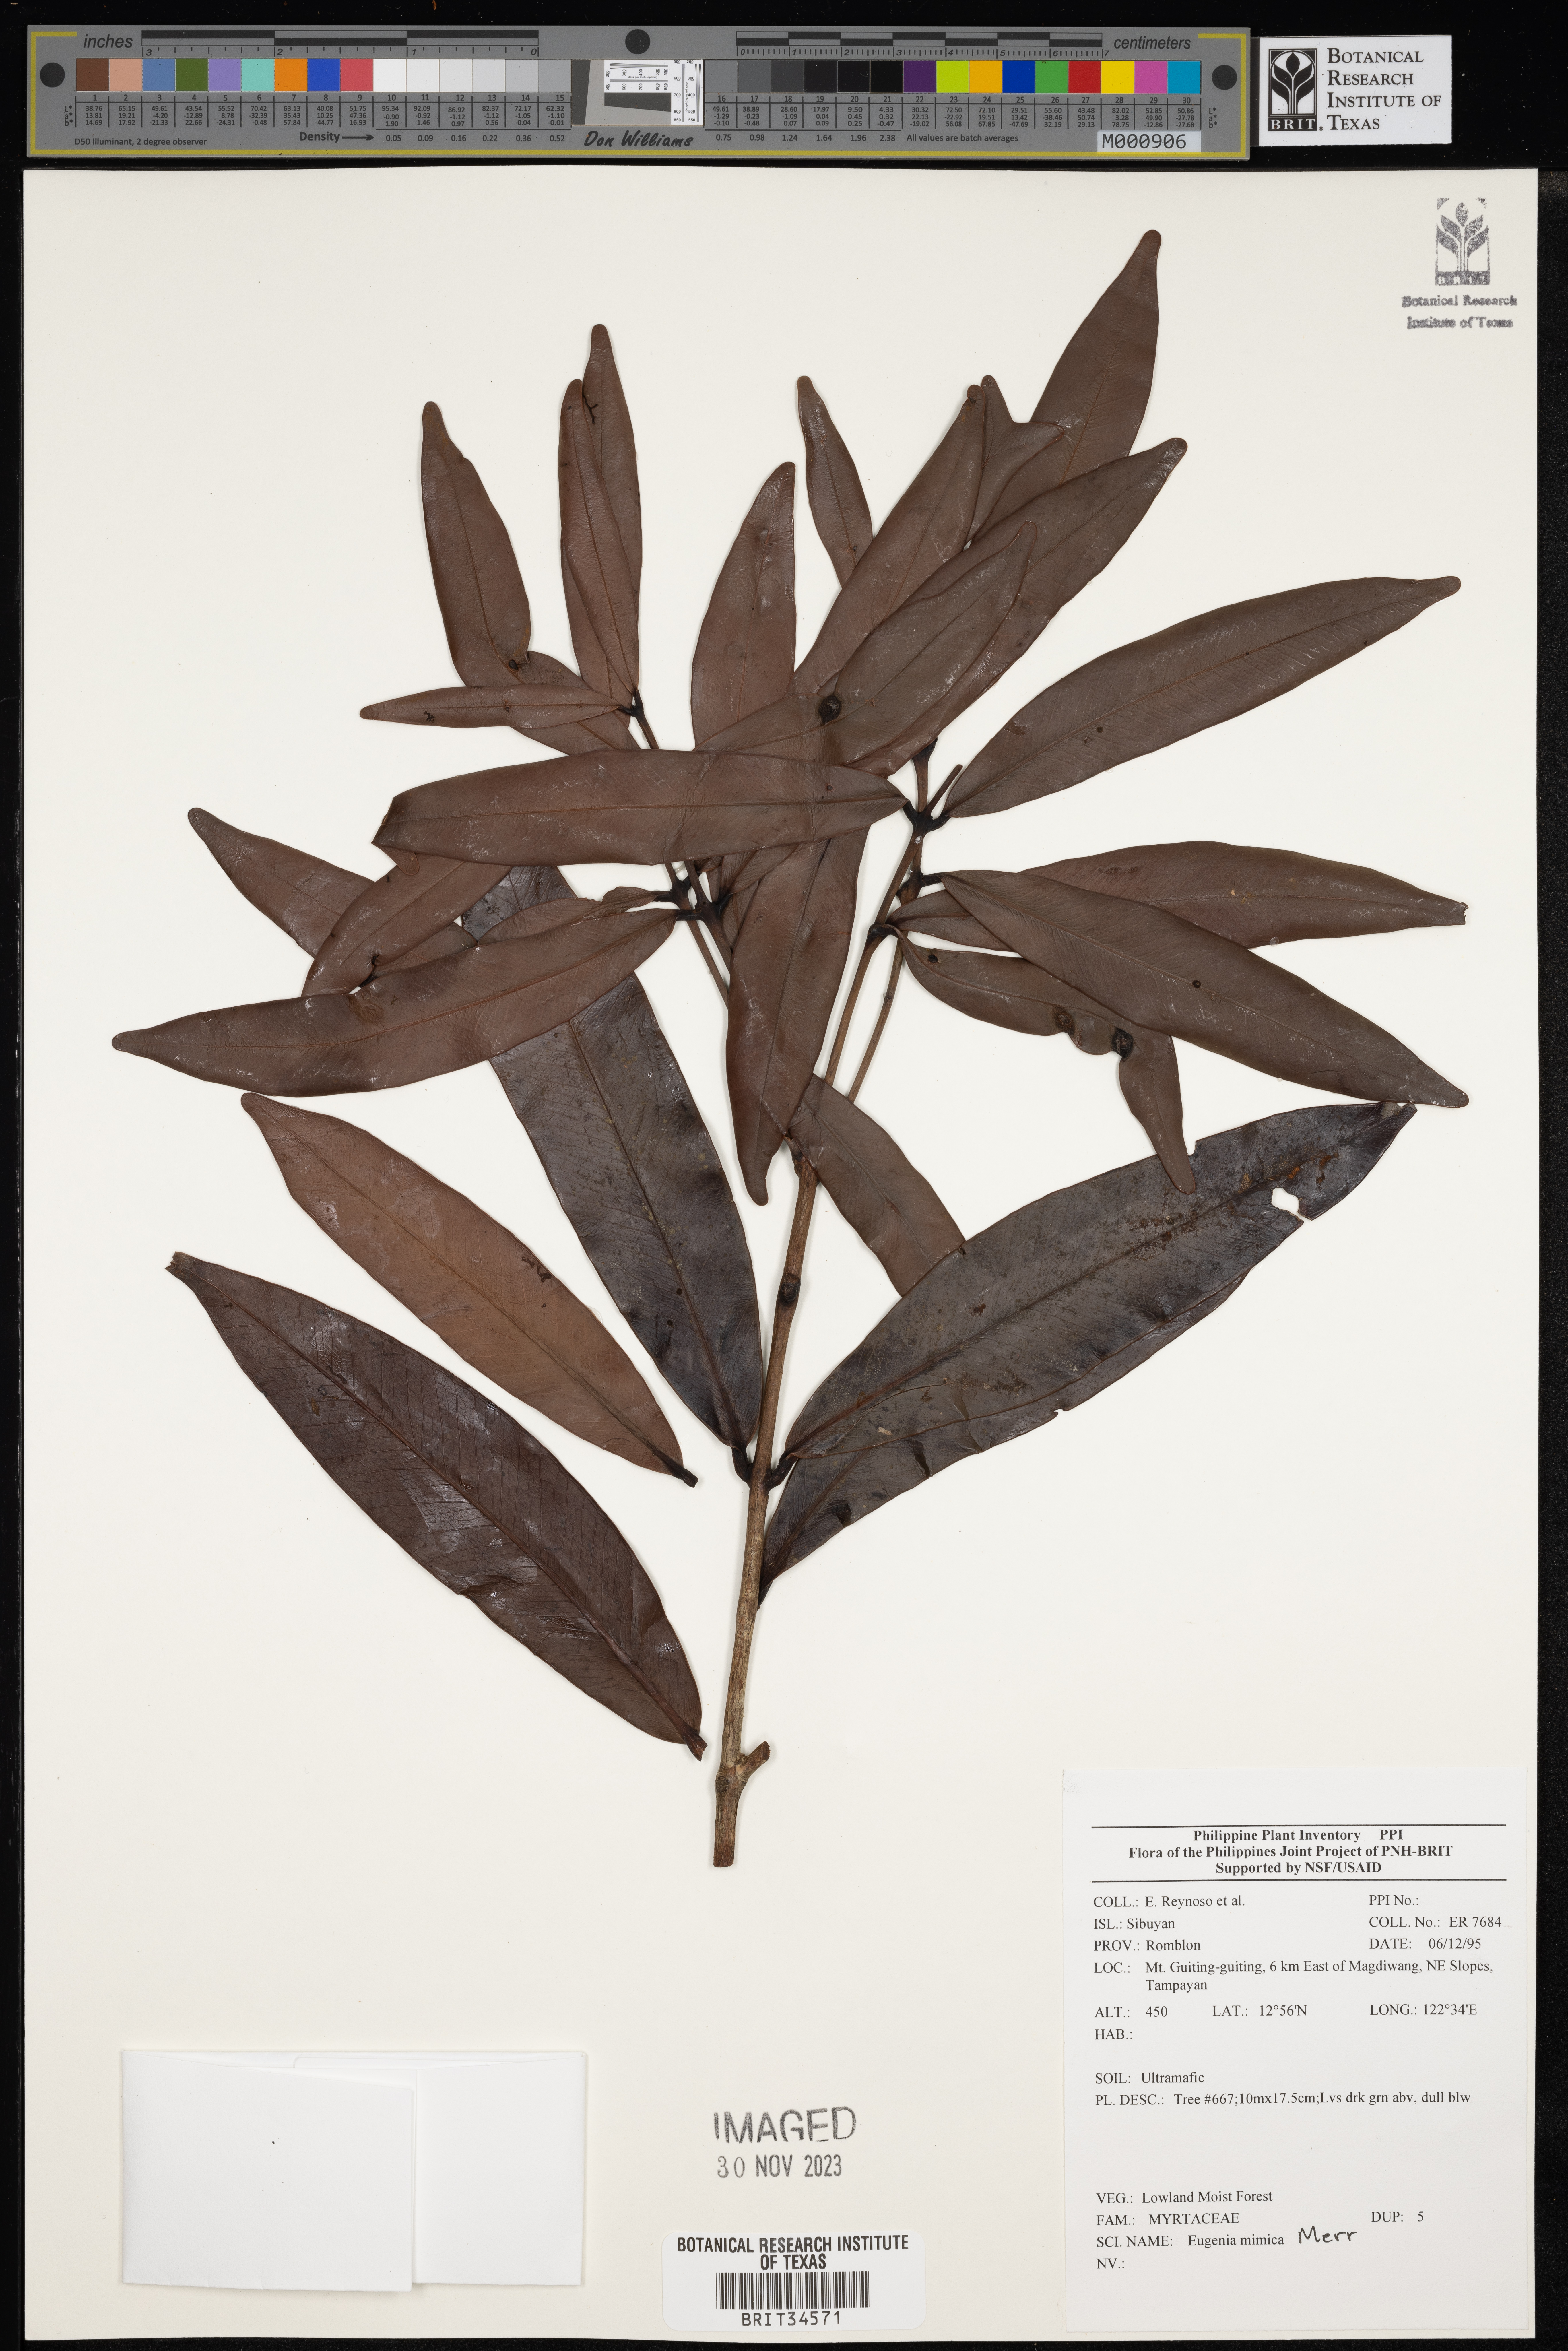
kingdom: Plantae
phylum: Tracheophyta
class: Magnoliopsida
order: Myrtales
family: Myrtaceae
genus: Eugenia
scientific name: Eugenia
